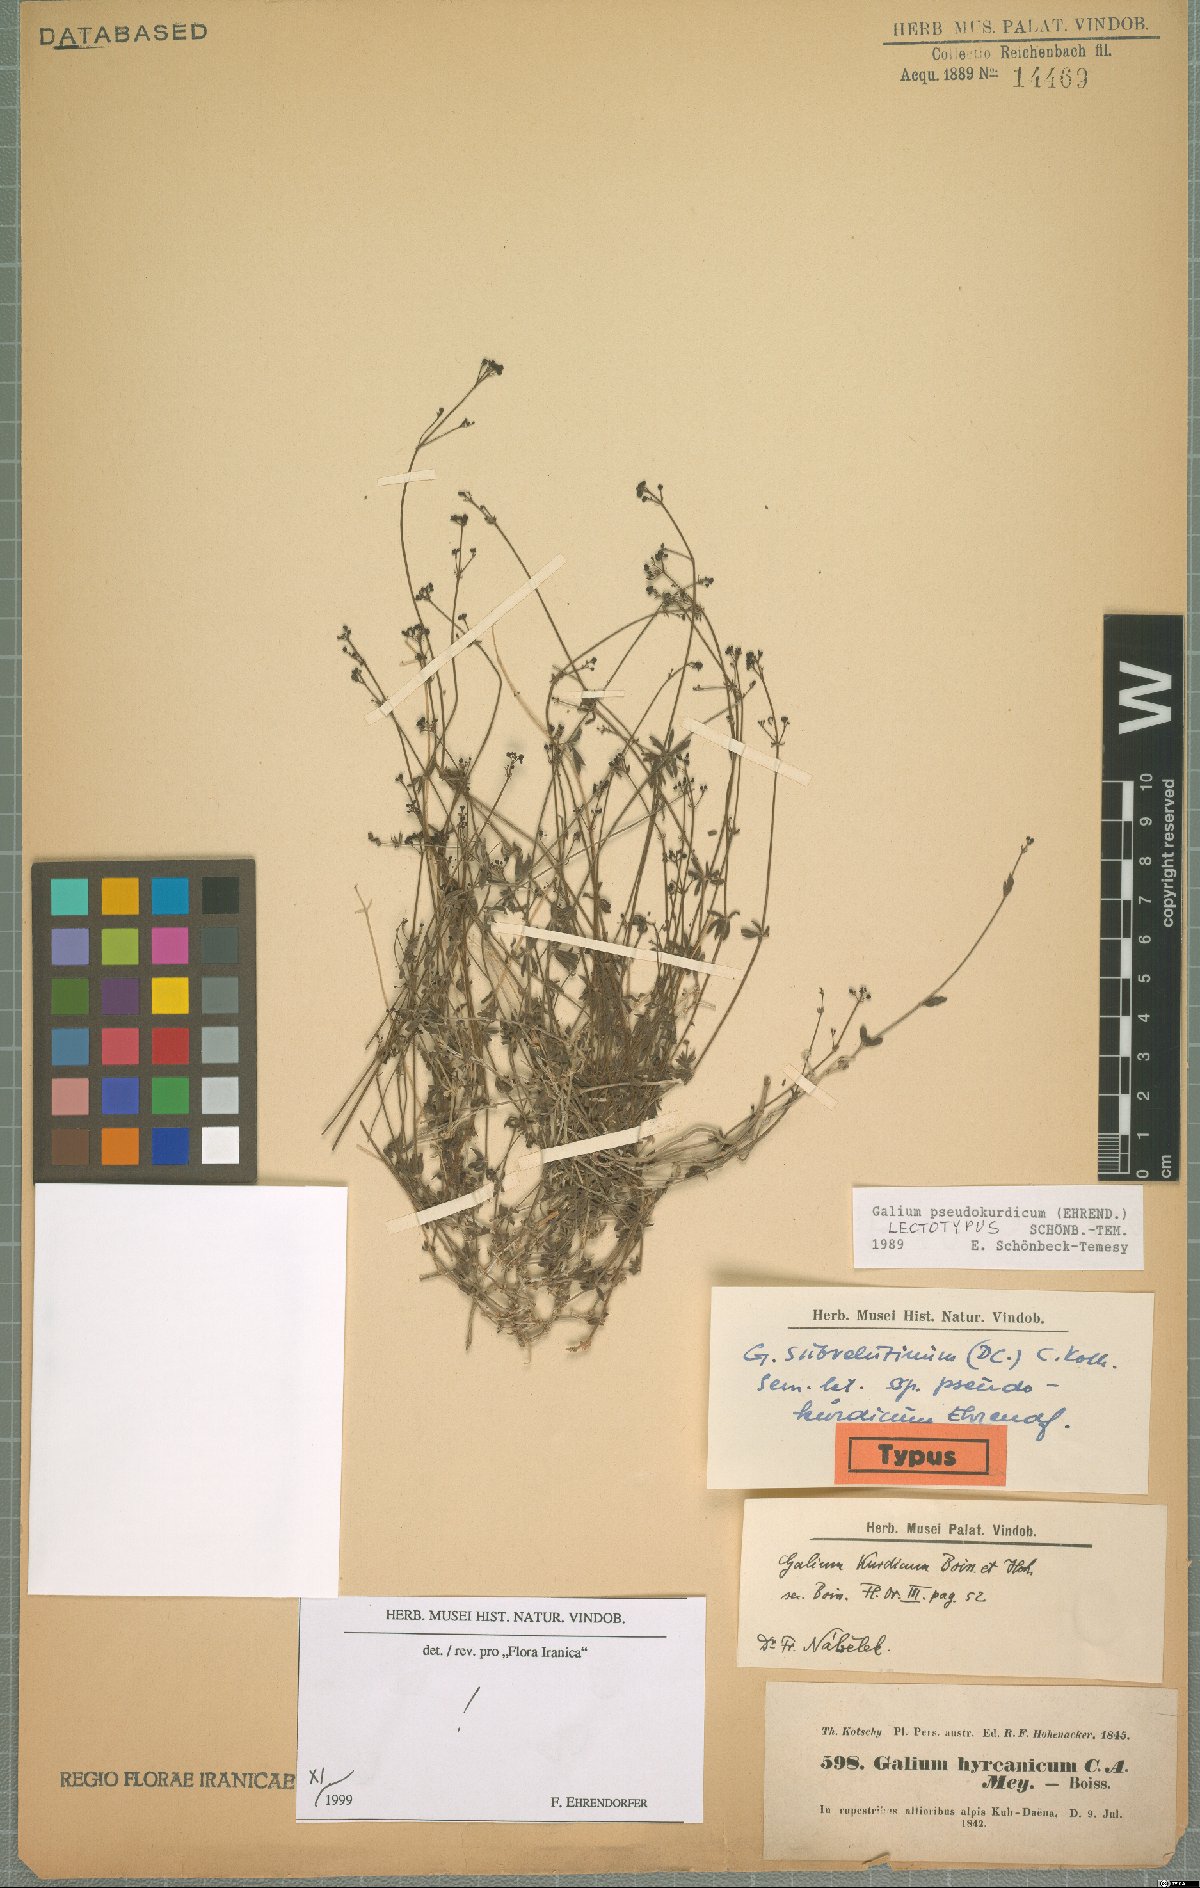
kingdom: Plantae
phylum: Tracheophyta
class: Magnoliopsida
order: Gentianales
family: Rubiaceae
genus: Galium
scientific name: Galium pseudokurdicum
